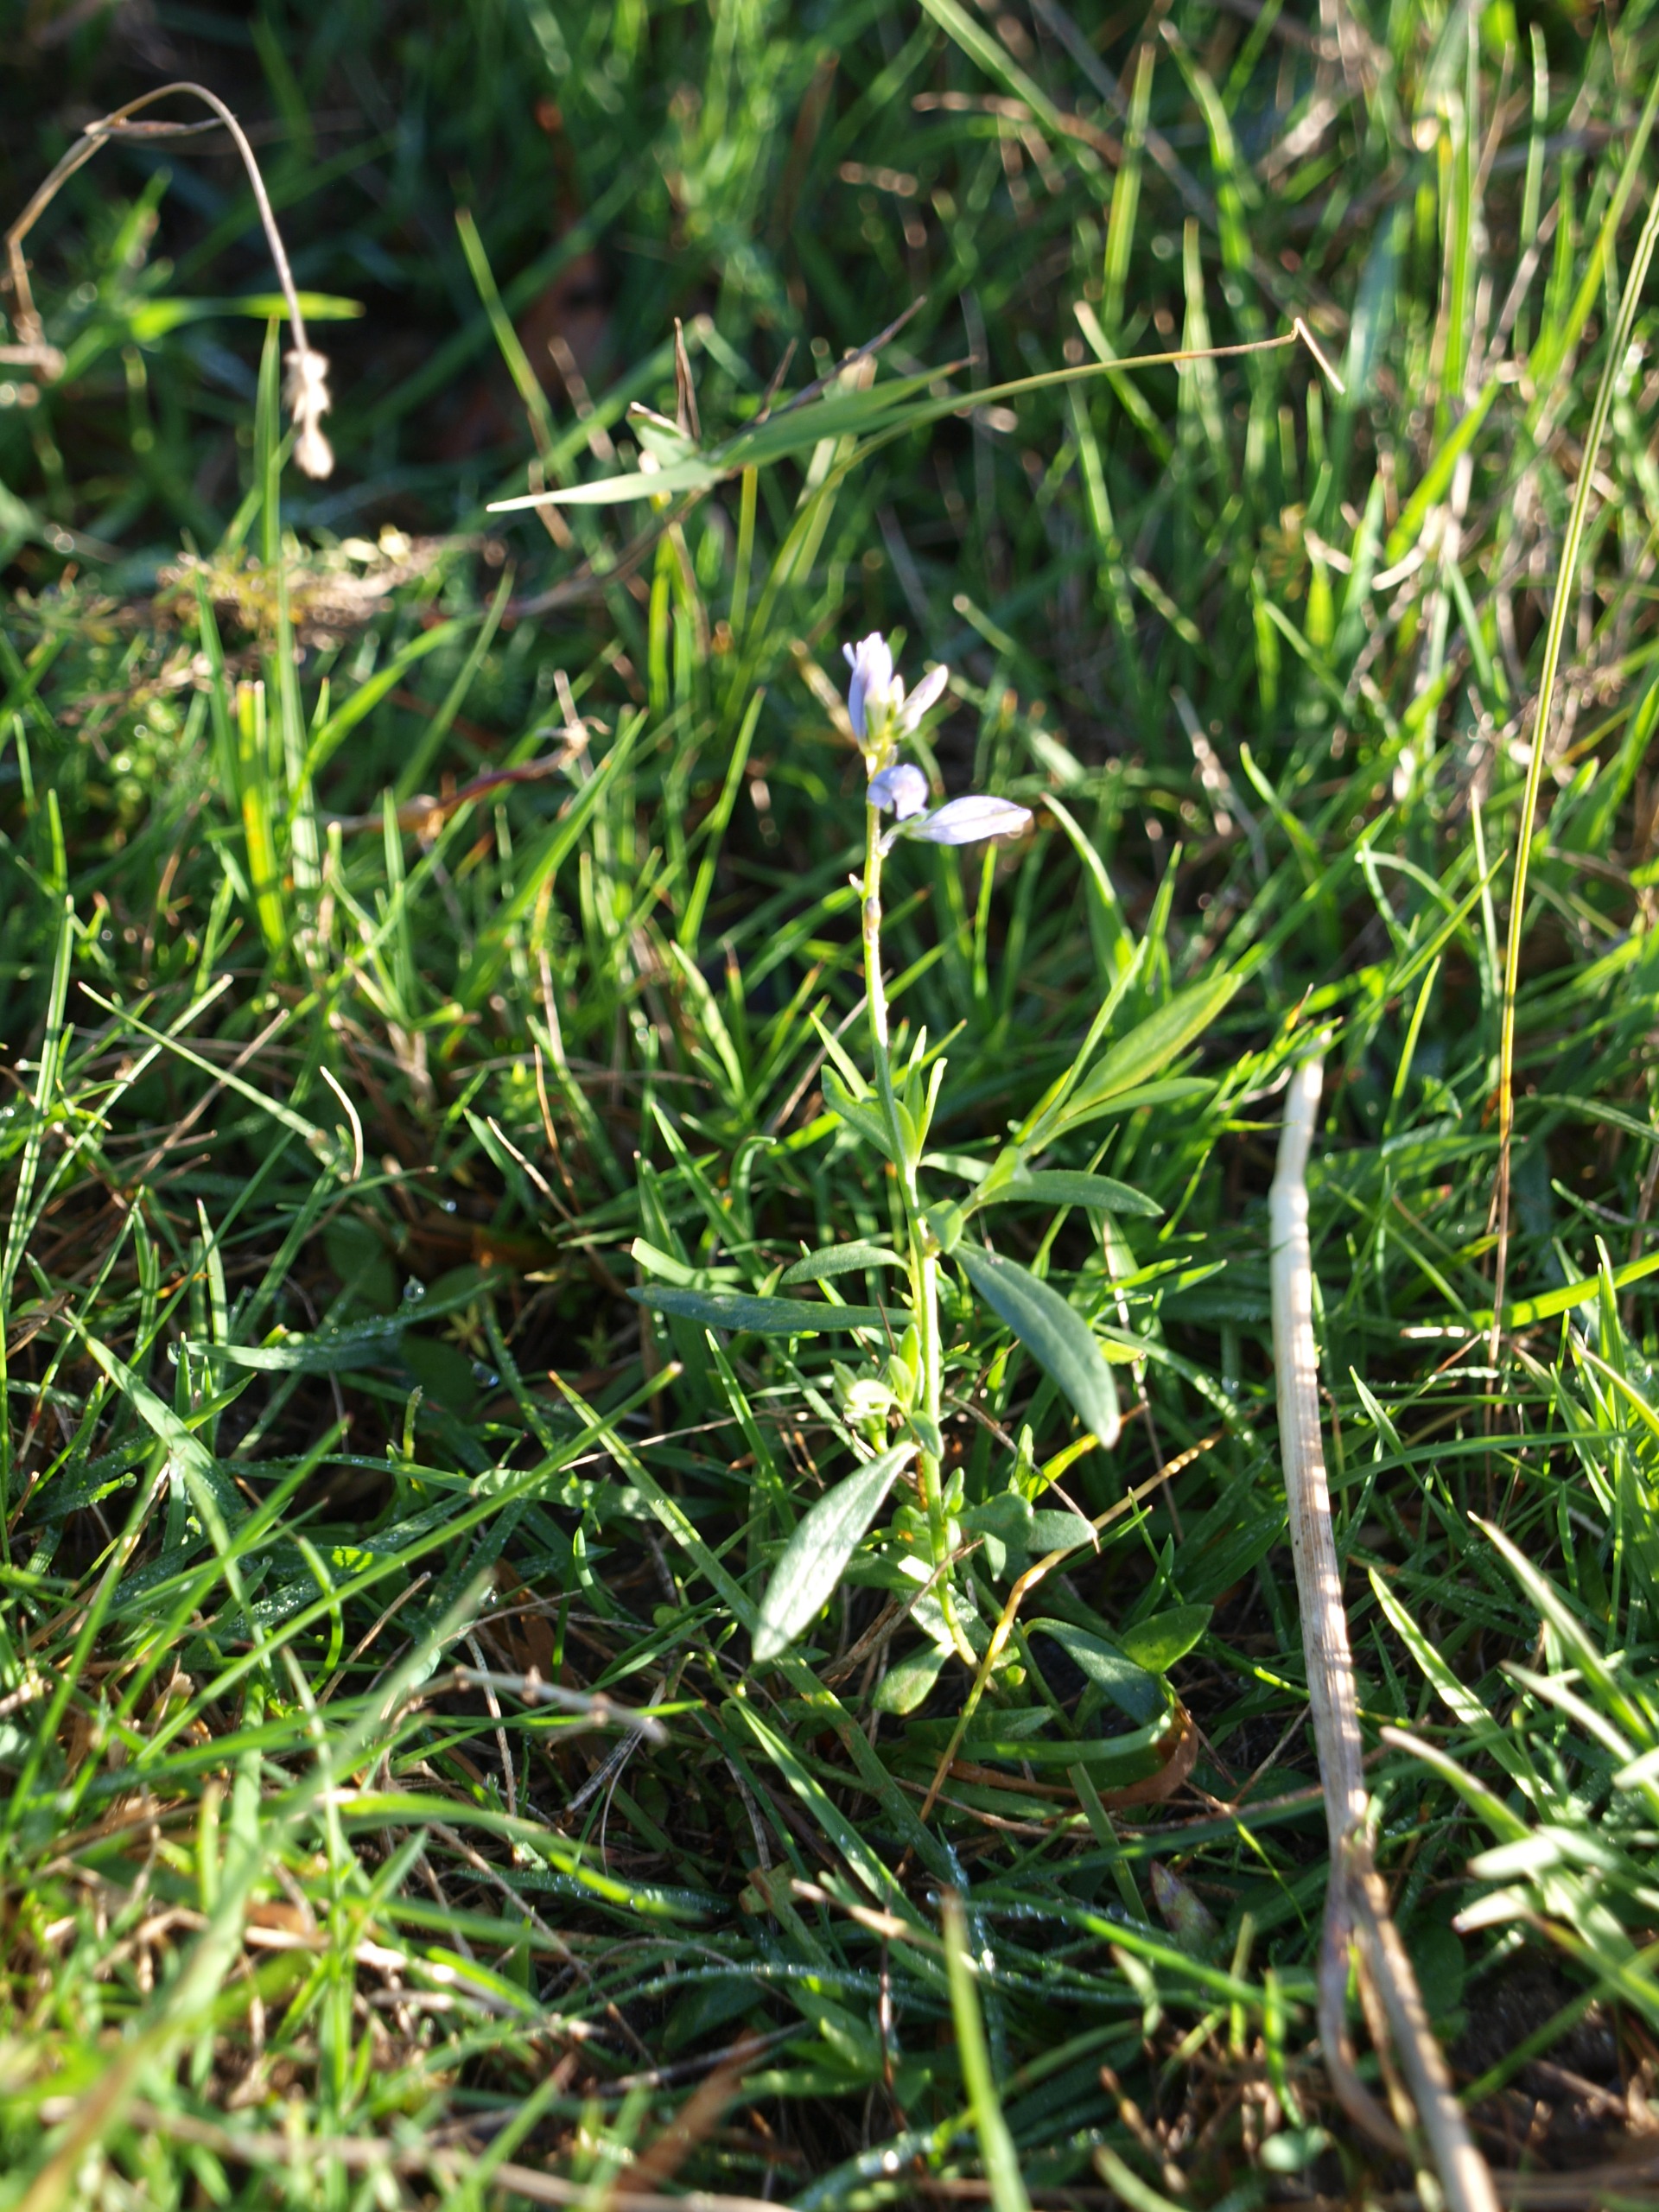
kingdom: Plantae
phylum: Tracheophyta
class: Magnoliopsida
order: Fabales
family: Polygalaceae
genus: Polygala
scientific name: Polygala vulgaris
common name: Almindelig mælkeurt
